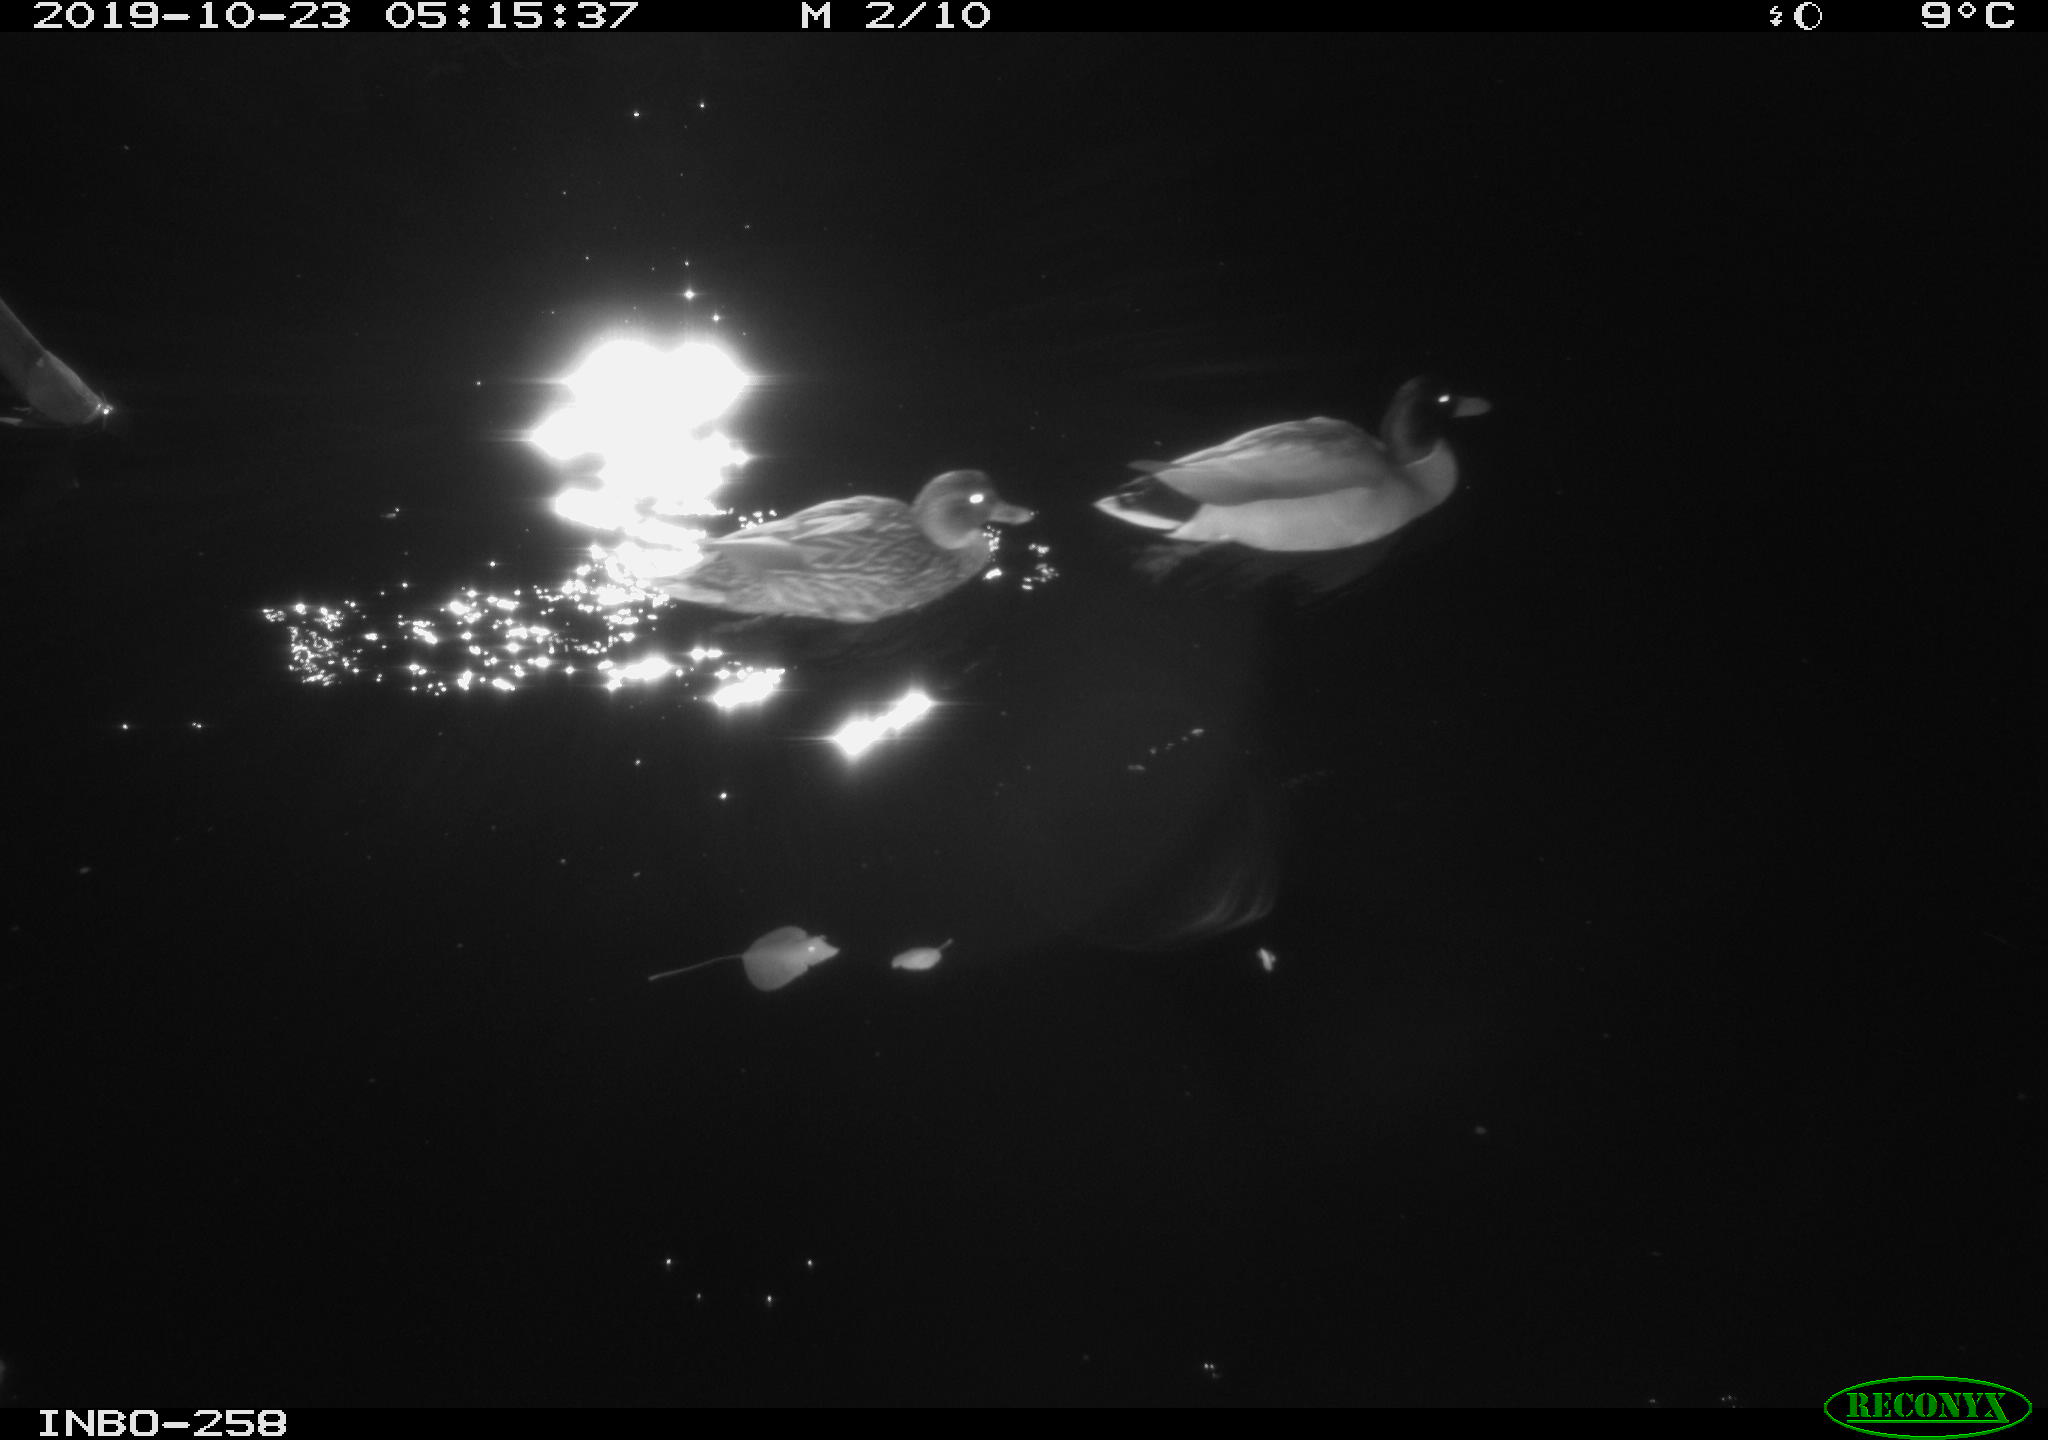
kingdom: Animalia
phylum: Chordata
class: Aves
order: Anseriformes
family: Anatidae
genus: Anas
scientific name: Anas platyrhynchos
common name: Mallard
